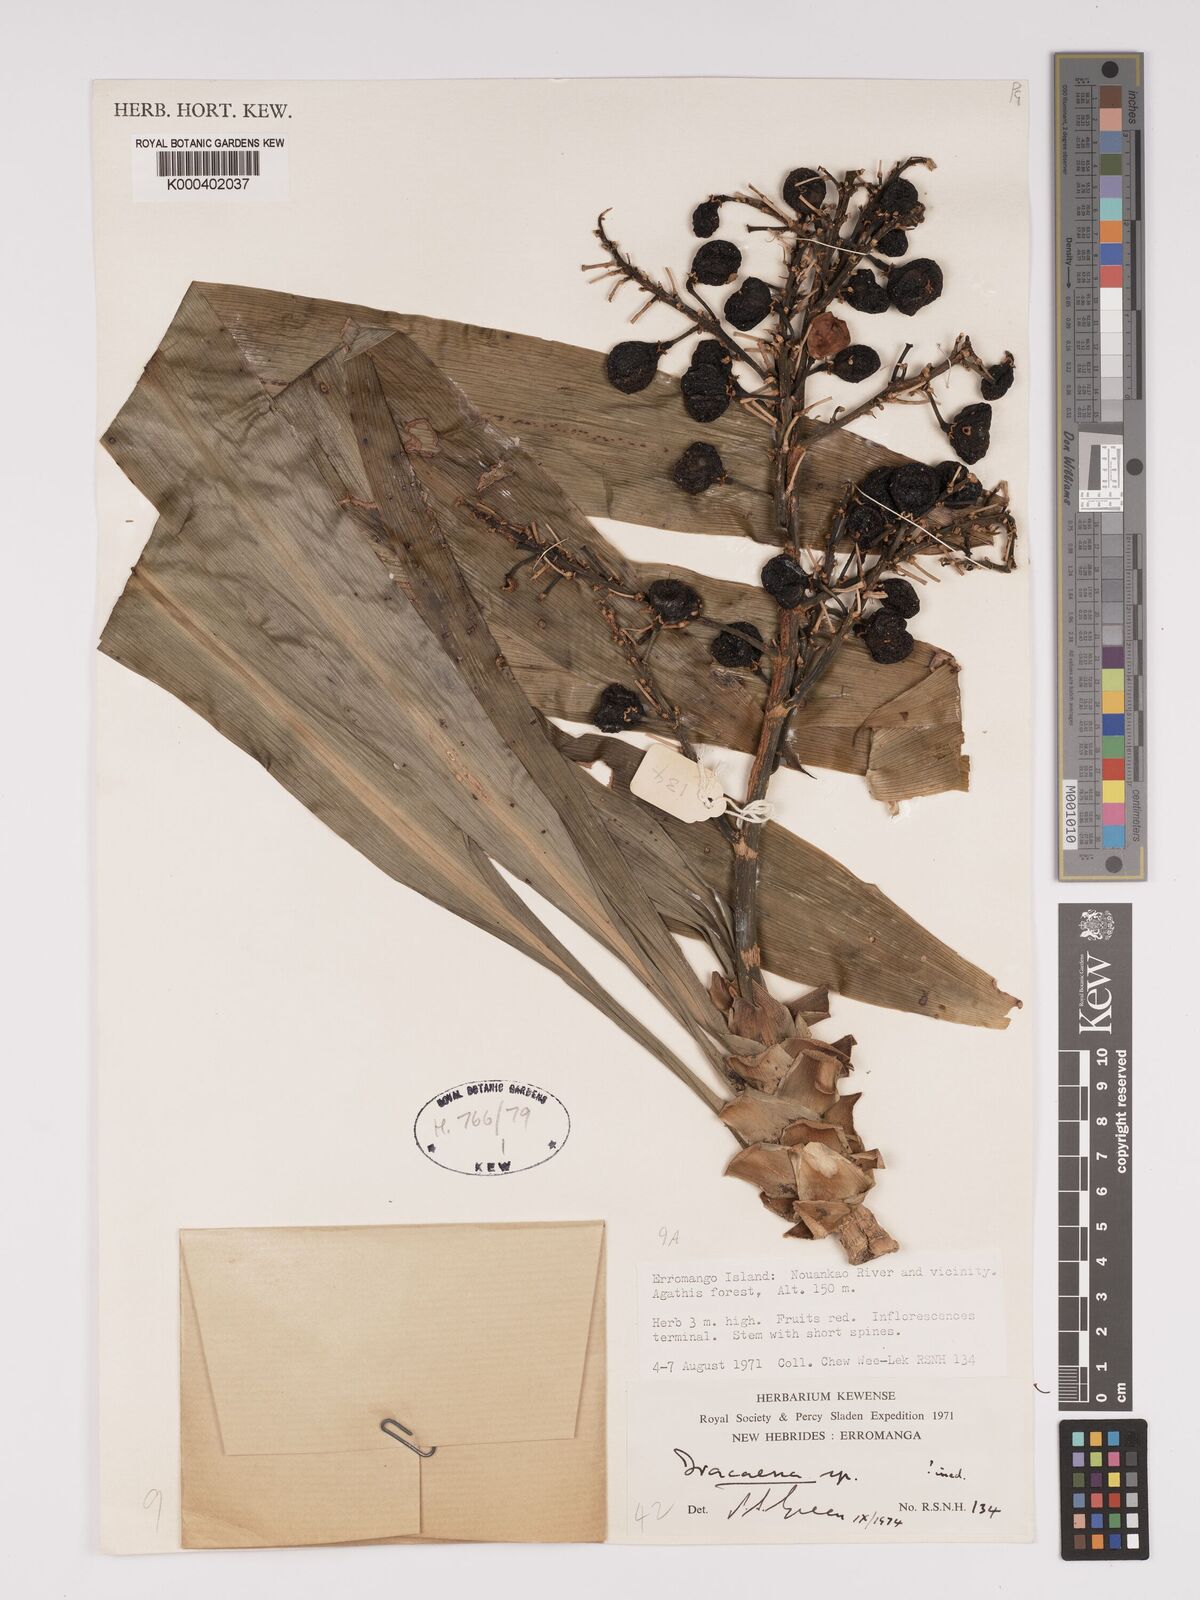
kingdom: Plantae
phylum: Tracheophyta
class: Liliopsida
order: Asparagales
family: Asparagaceae
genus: Dracaena
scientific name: Dracaena
